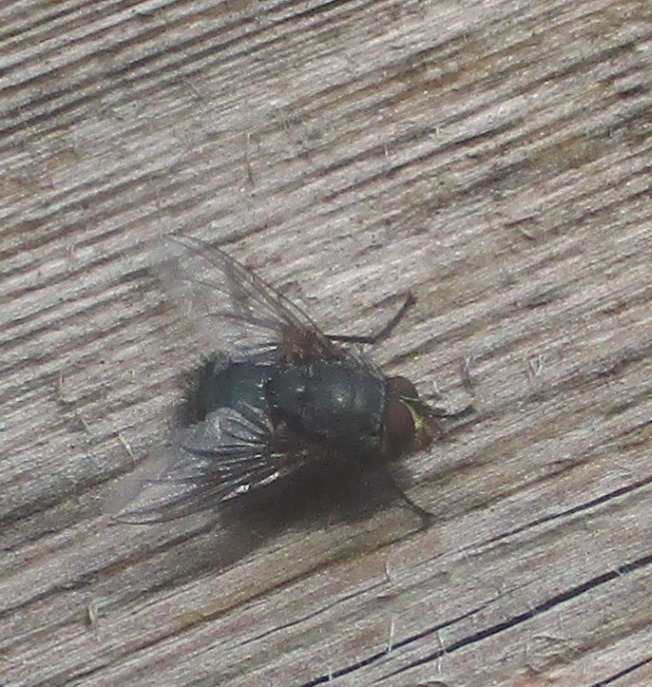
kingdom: Animalia
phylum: Arthropoda
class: Insecta
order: Diptera
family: Calliphoridae
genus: Calliphora
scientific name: Calliphora vicina
